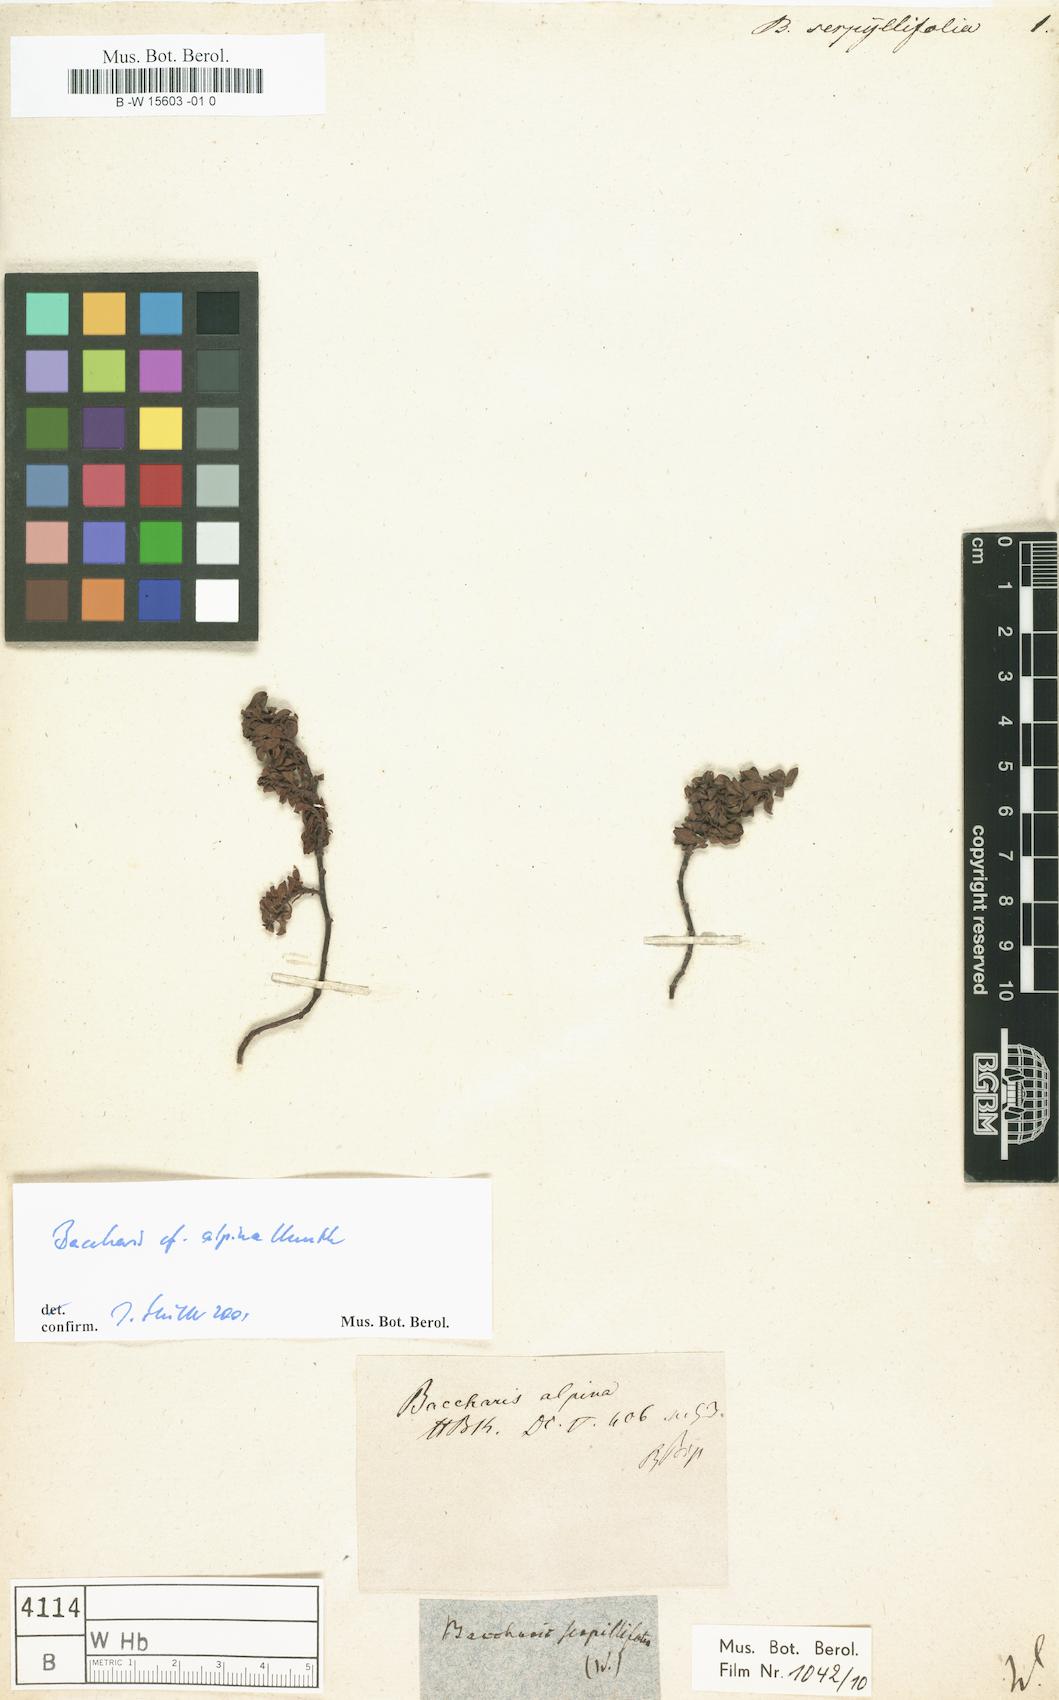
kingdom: Plantae
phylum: Tracheophyta
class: Magnoliopsida
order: Asterales
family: Asteraceae
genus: Baccharis
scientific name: Baccharis caespitosa
